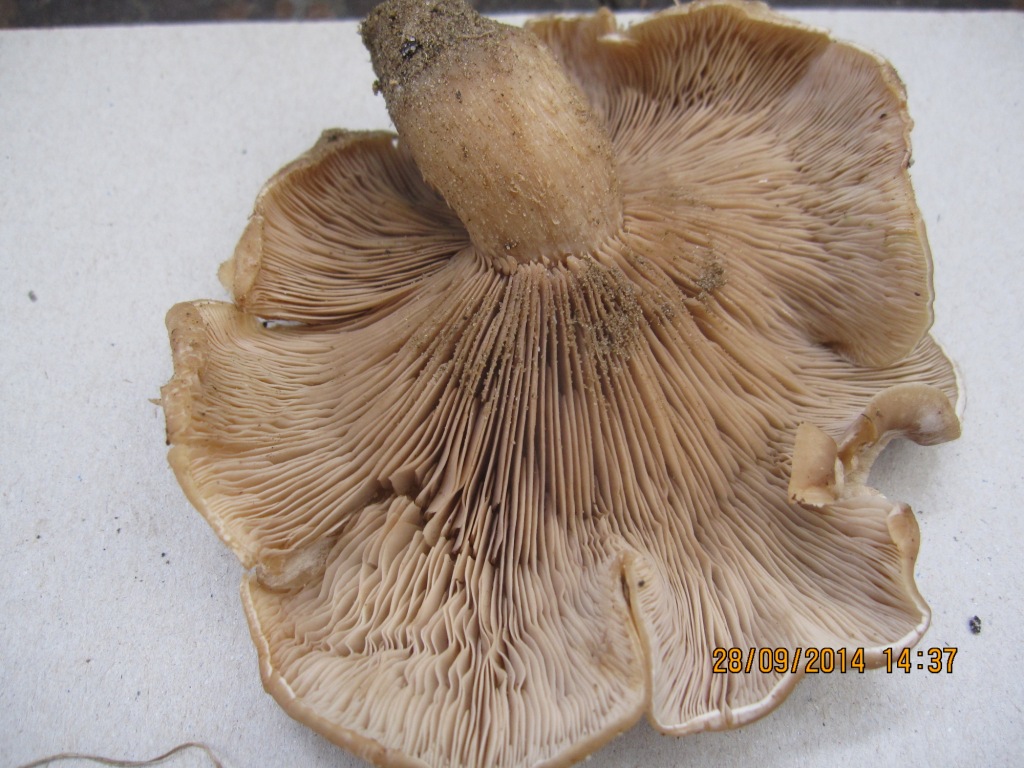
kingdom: Fungi
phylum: Basidiomycota
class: Agaricomycetes
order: Agaricales
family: Tricholomataceae
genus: Lepista
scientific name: Lepista panaeolus
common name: marmoreret hekseringshat
